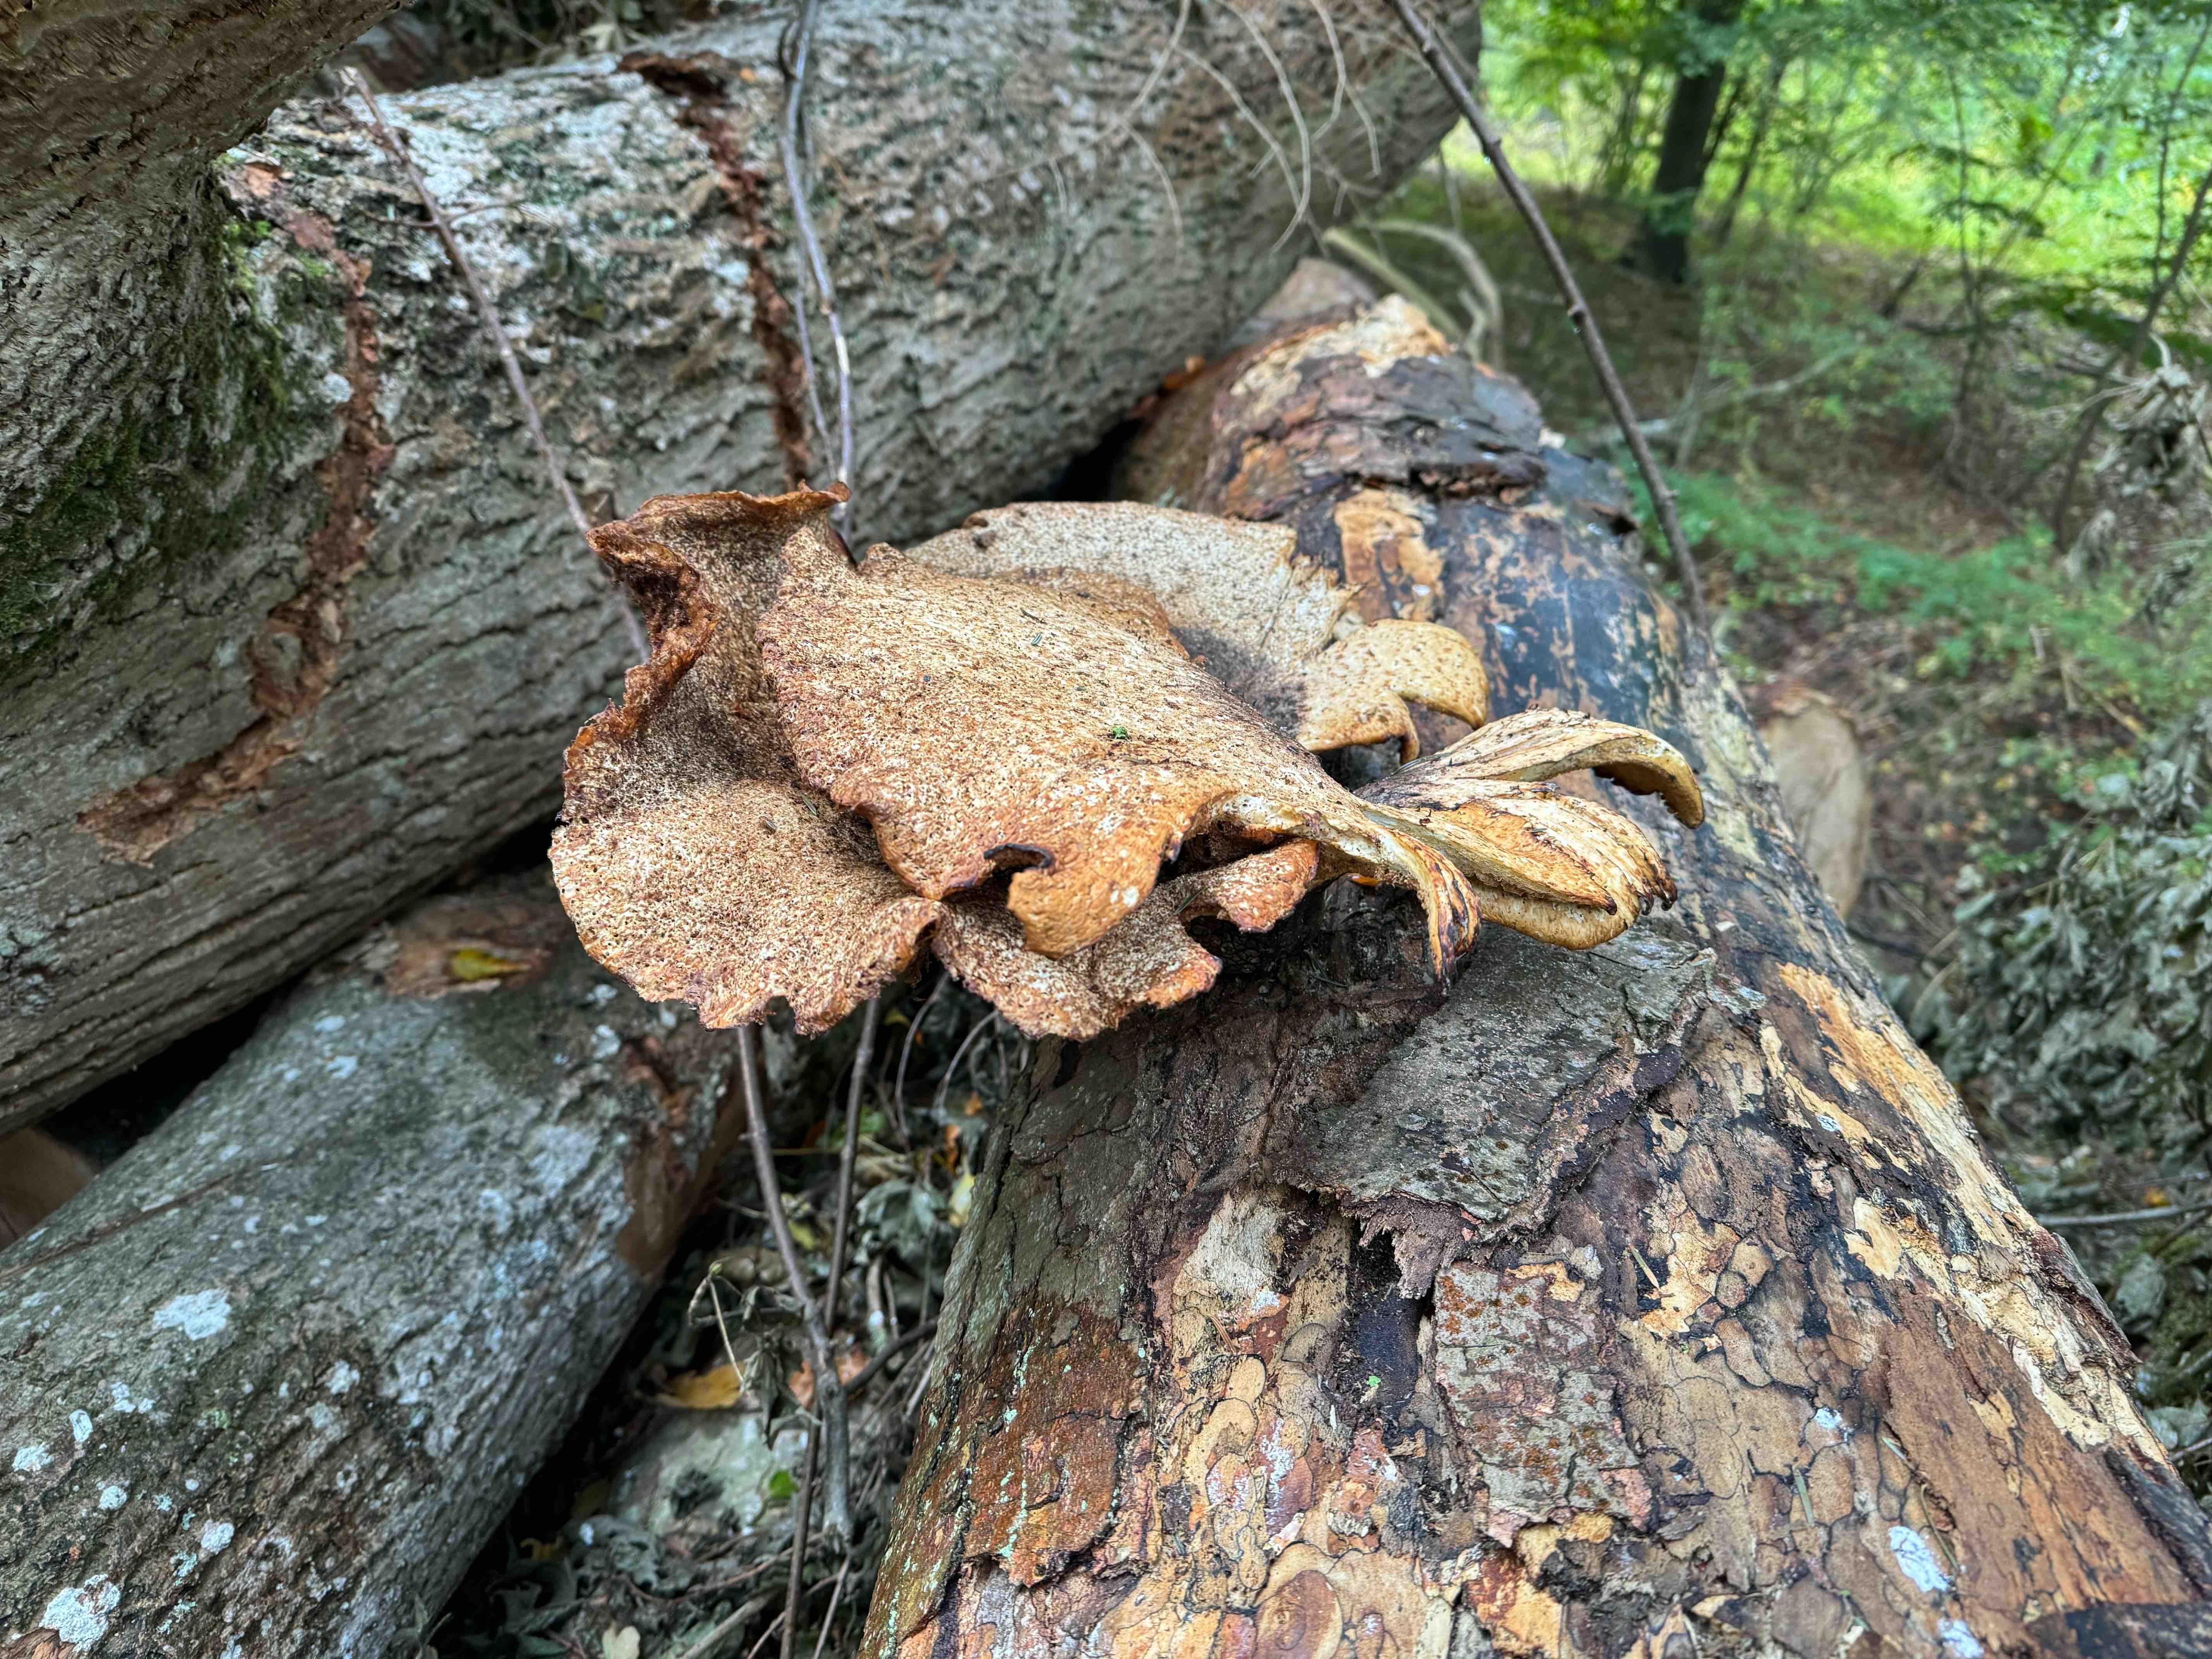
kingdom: Fungi
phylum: Basidiomycota
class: Agaricomycetes
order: Polyporales
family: Polyporaceae
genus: Cerioporus
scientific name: Cerioporus squamosus
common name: skællet stilkporesvamp
